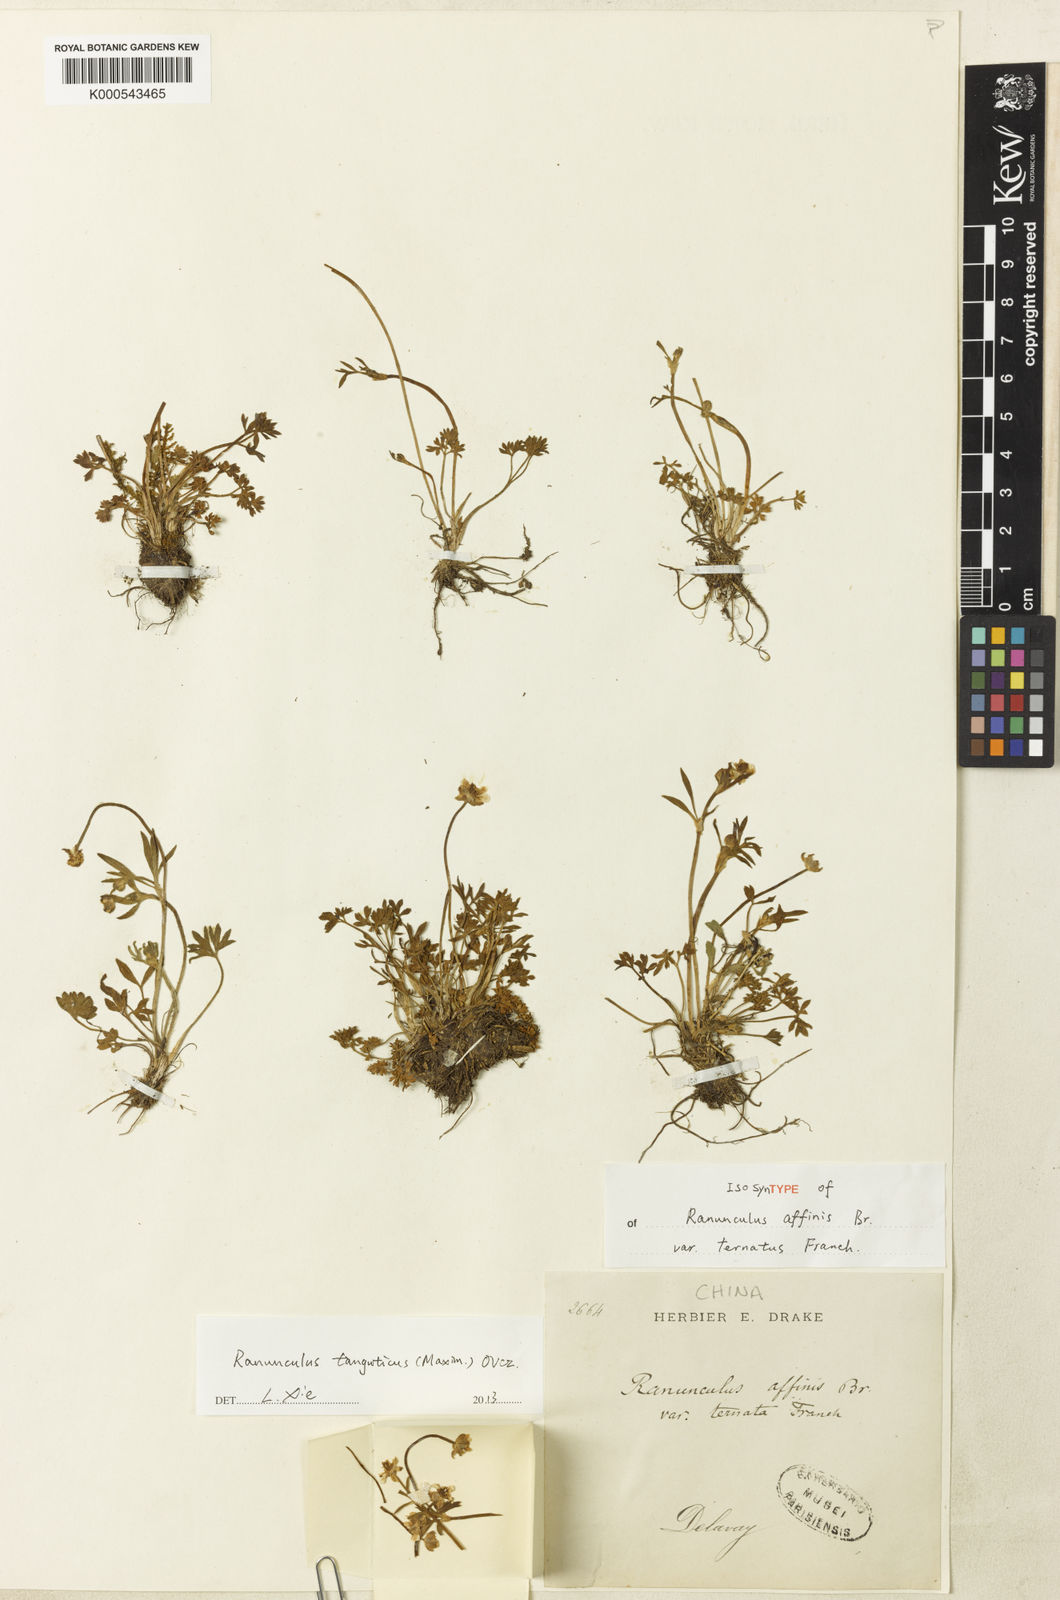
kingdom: Plantae
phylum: Tracheophyta
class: Magnoliopsida
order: Ranunculales
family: Ranunculaceae
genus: Ranunculus
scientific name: Ranunculus
